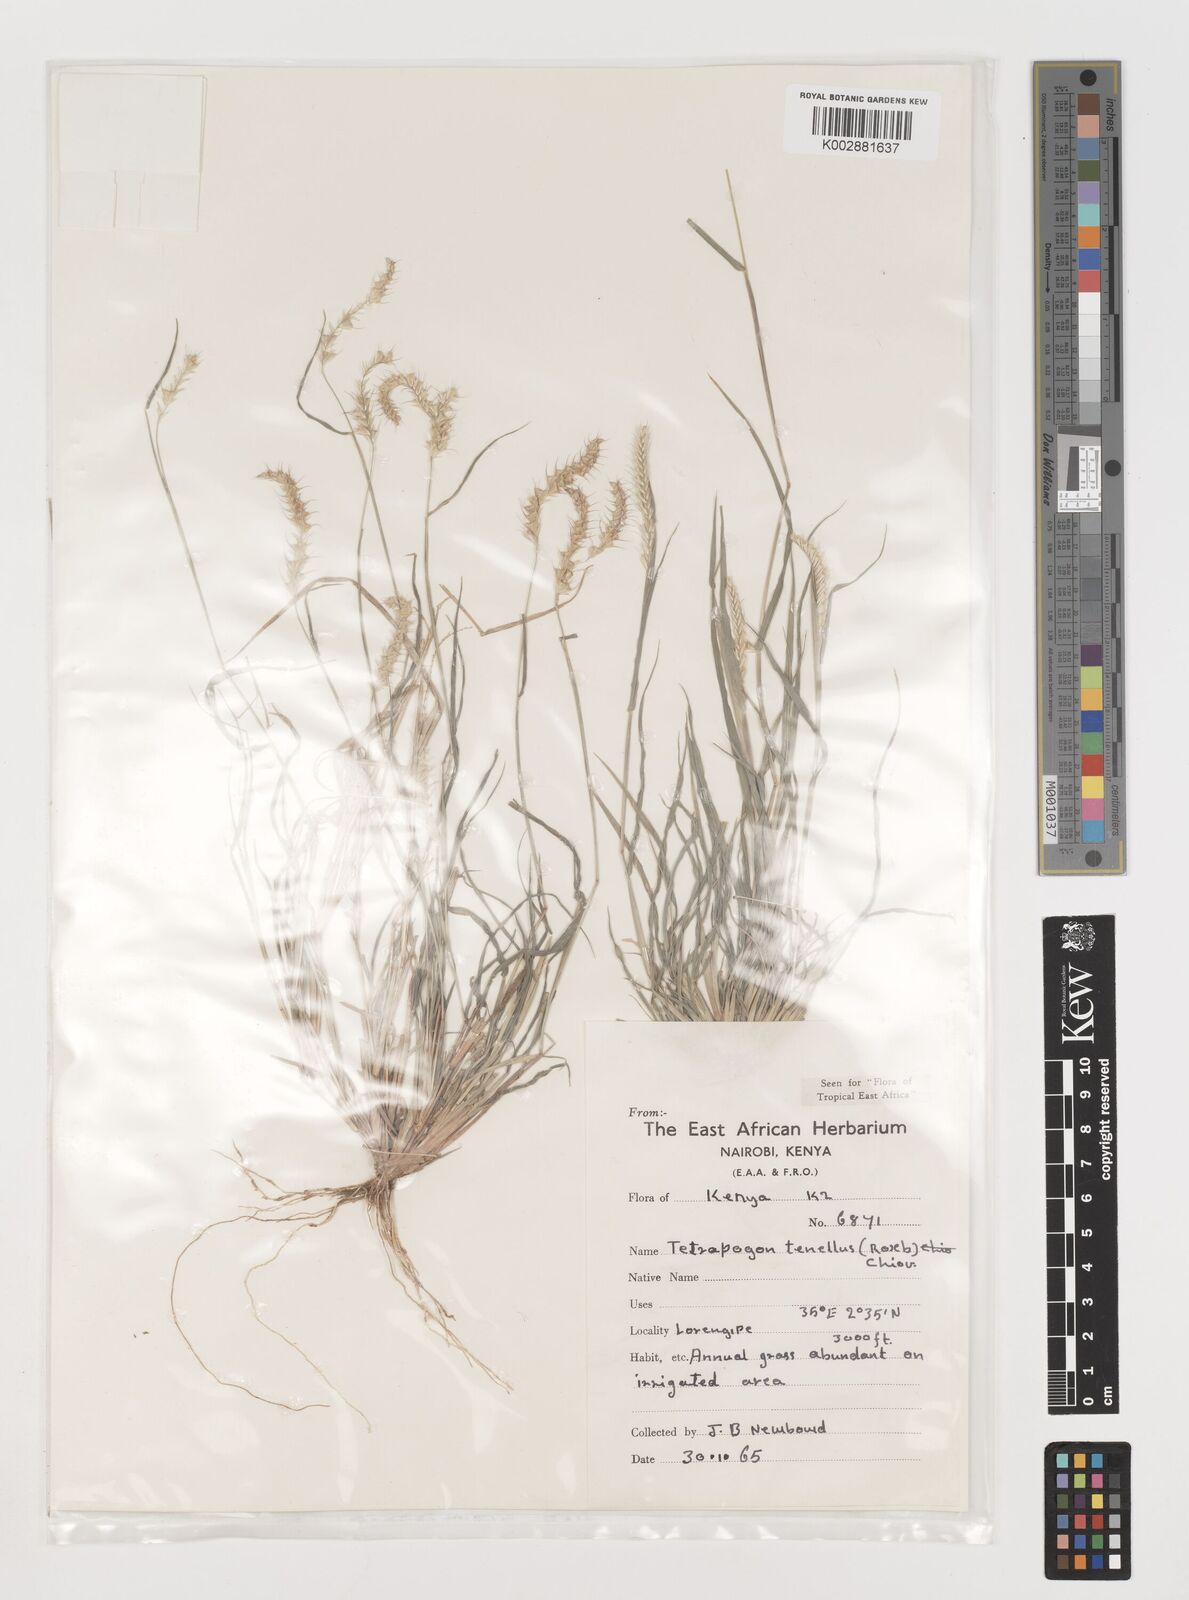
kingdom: Plantae
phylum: Tracheophyta
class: Liliopsida
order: Poales
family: Poaceae
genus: Tetrapogon
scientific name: Tetrapogon tenellus
